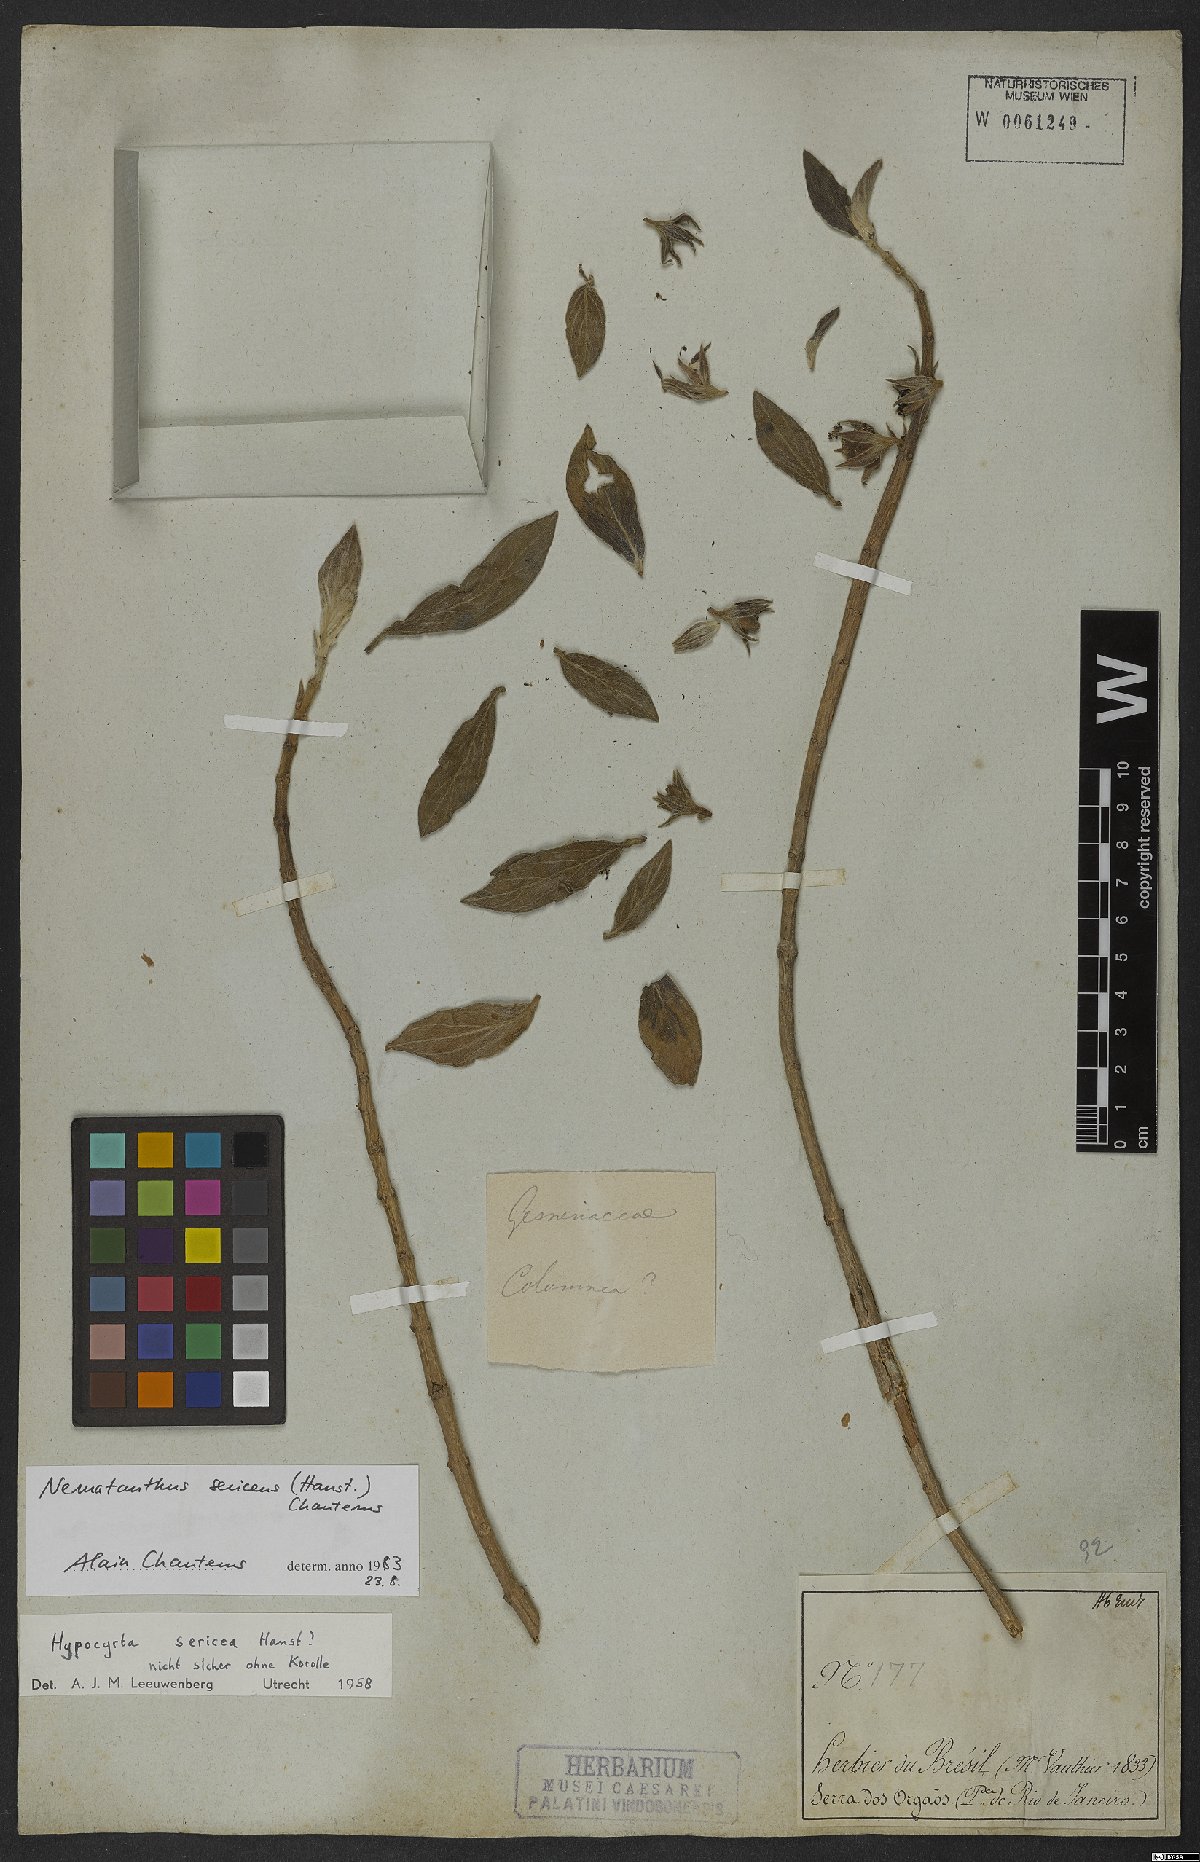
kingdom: Plantae
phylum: Tracheophyta
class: Magnoliopsida
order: Lamiales
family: Gesneriaceae
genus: Nematanthus
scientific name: Nematanthus sericeus
